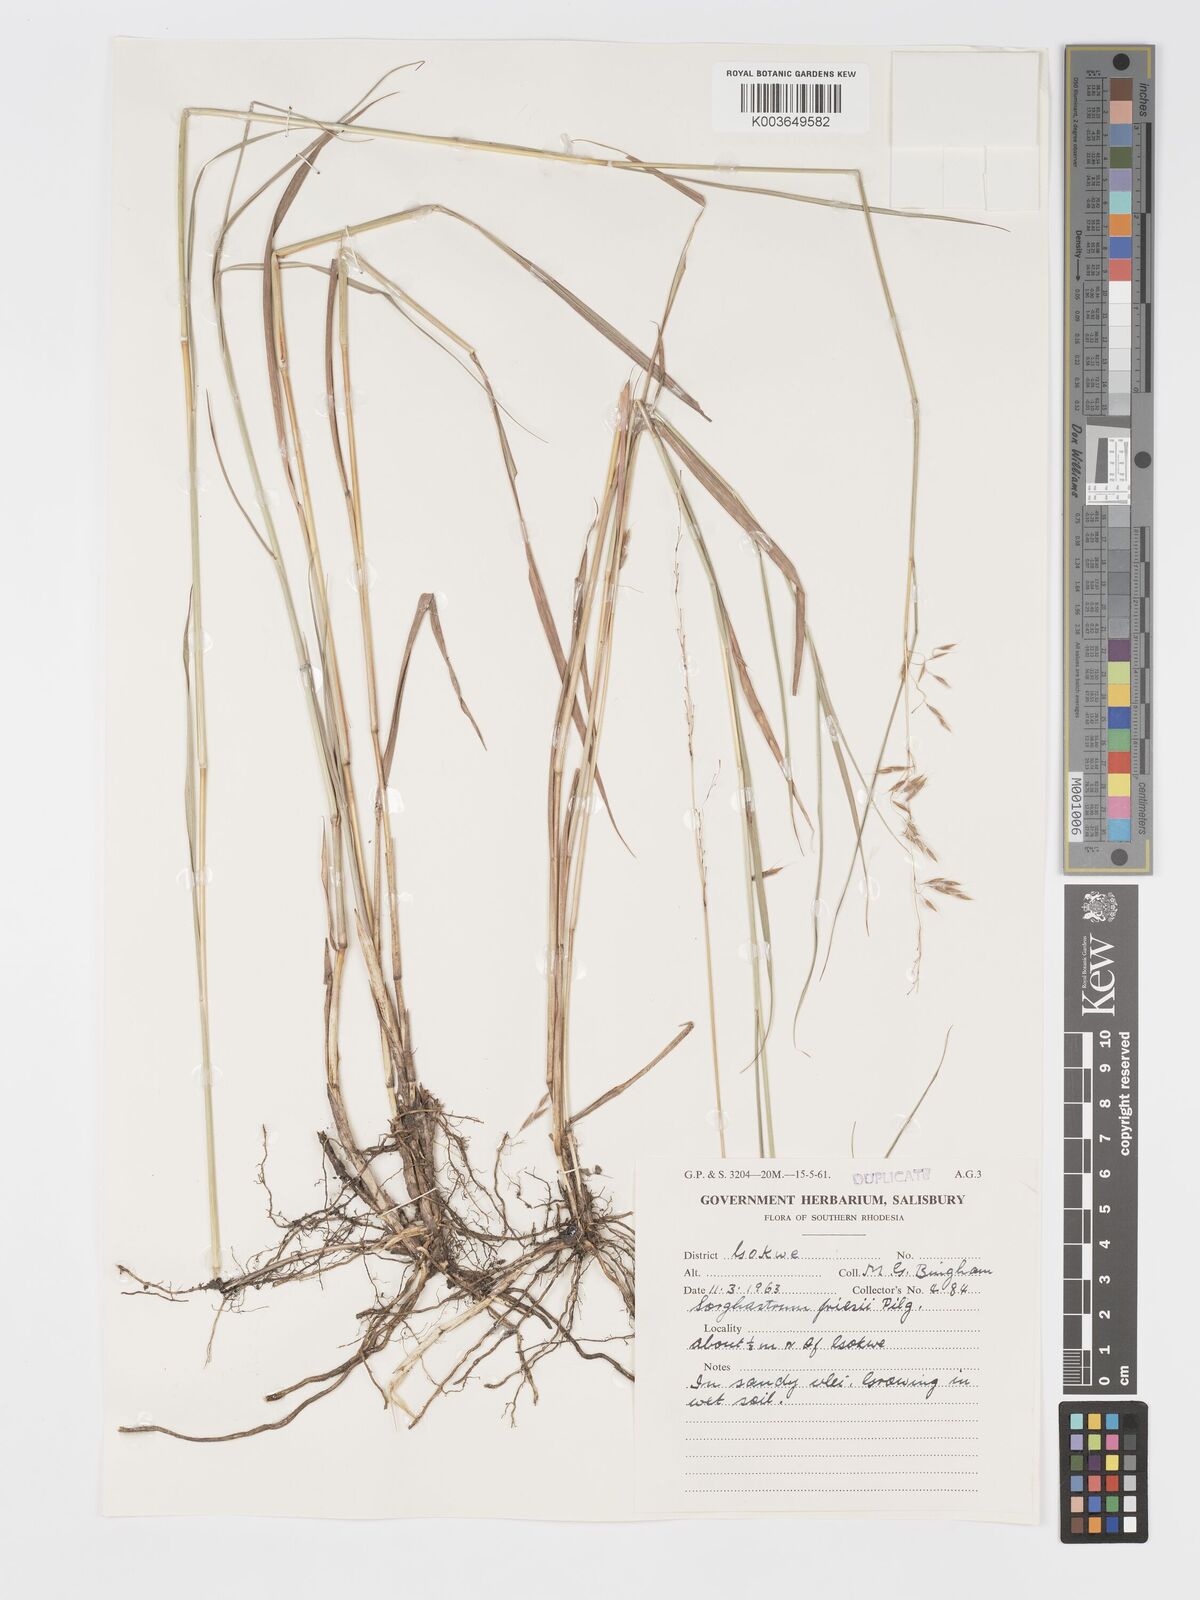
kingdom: Plantae
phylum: Tracheophyta
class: Liliopsida
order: Poales
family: Poaceae
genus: Sorghastrum
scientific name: Sorghastrum nudipes
